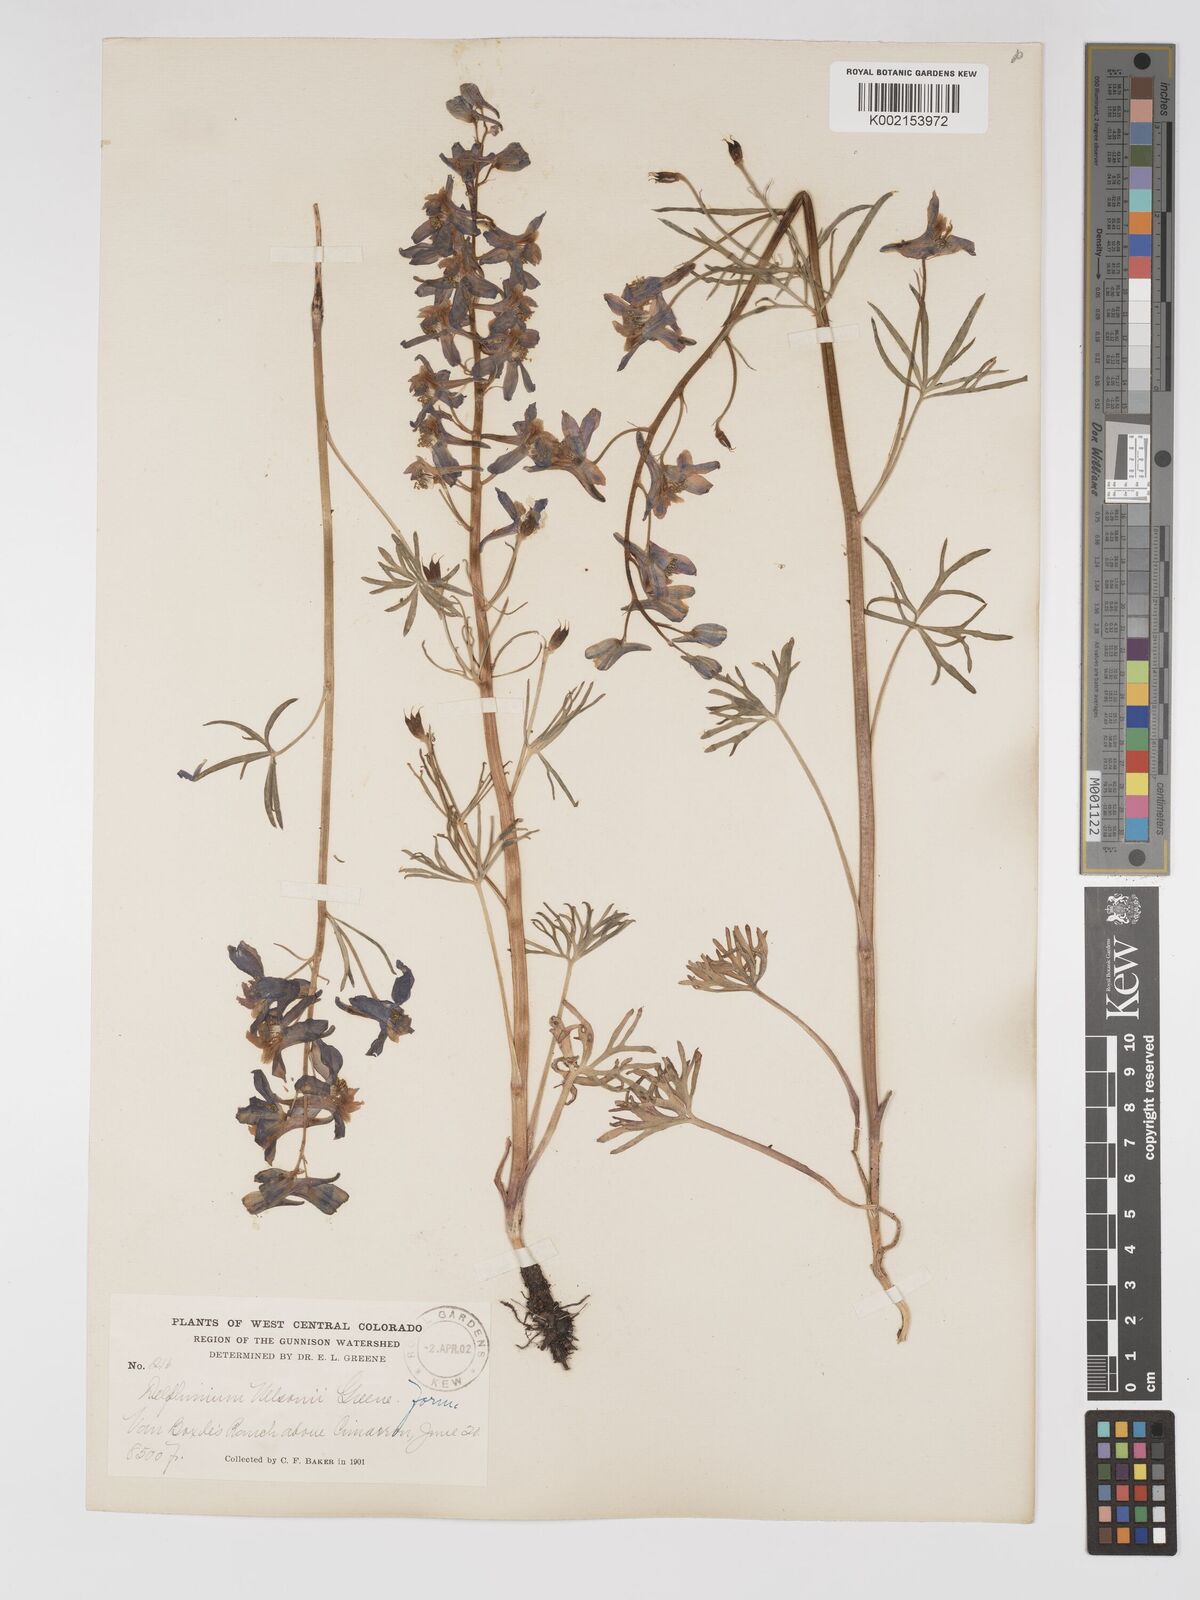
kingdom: Plantae
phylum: Tracheophyta
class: Magnoliopsida
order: Ranunculales
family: Ranunculaceae
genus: Delphinium
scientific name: Delphinium nuttallianum
